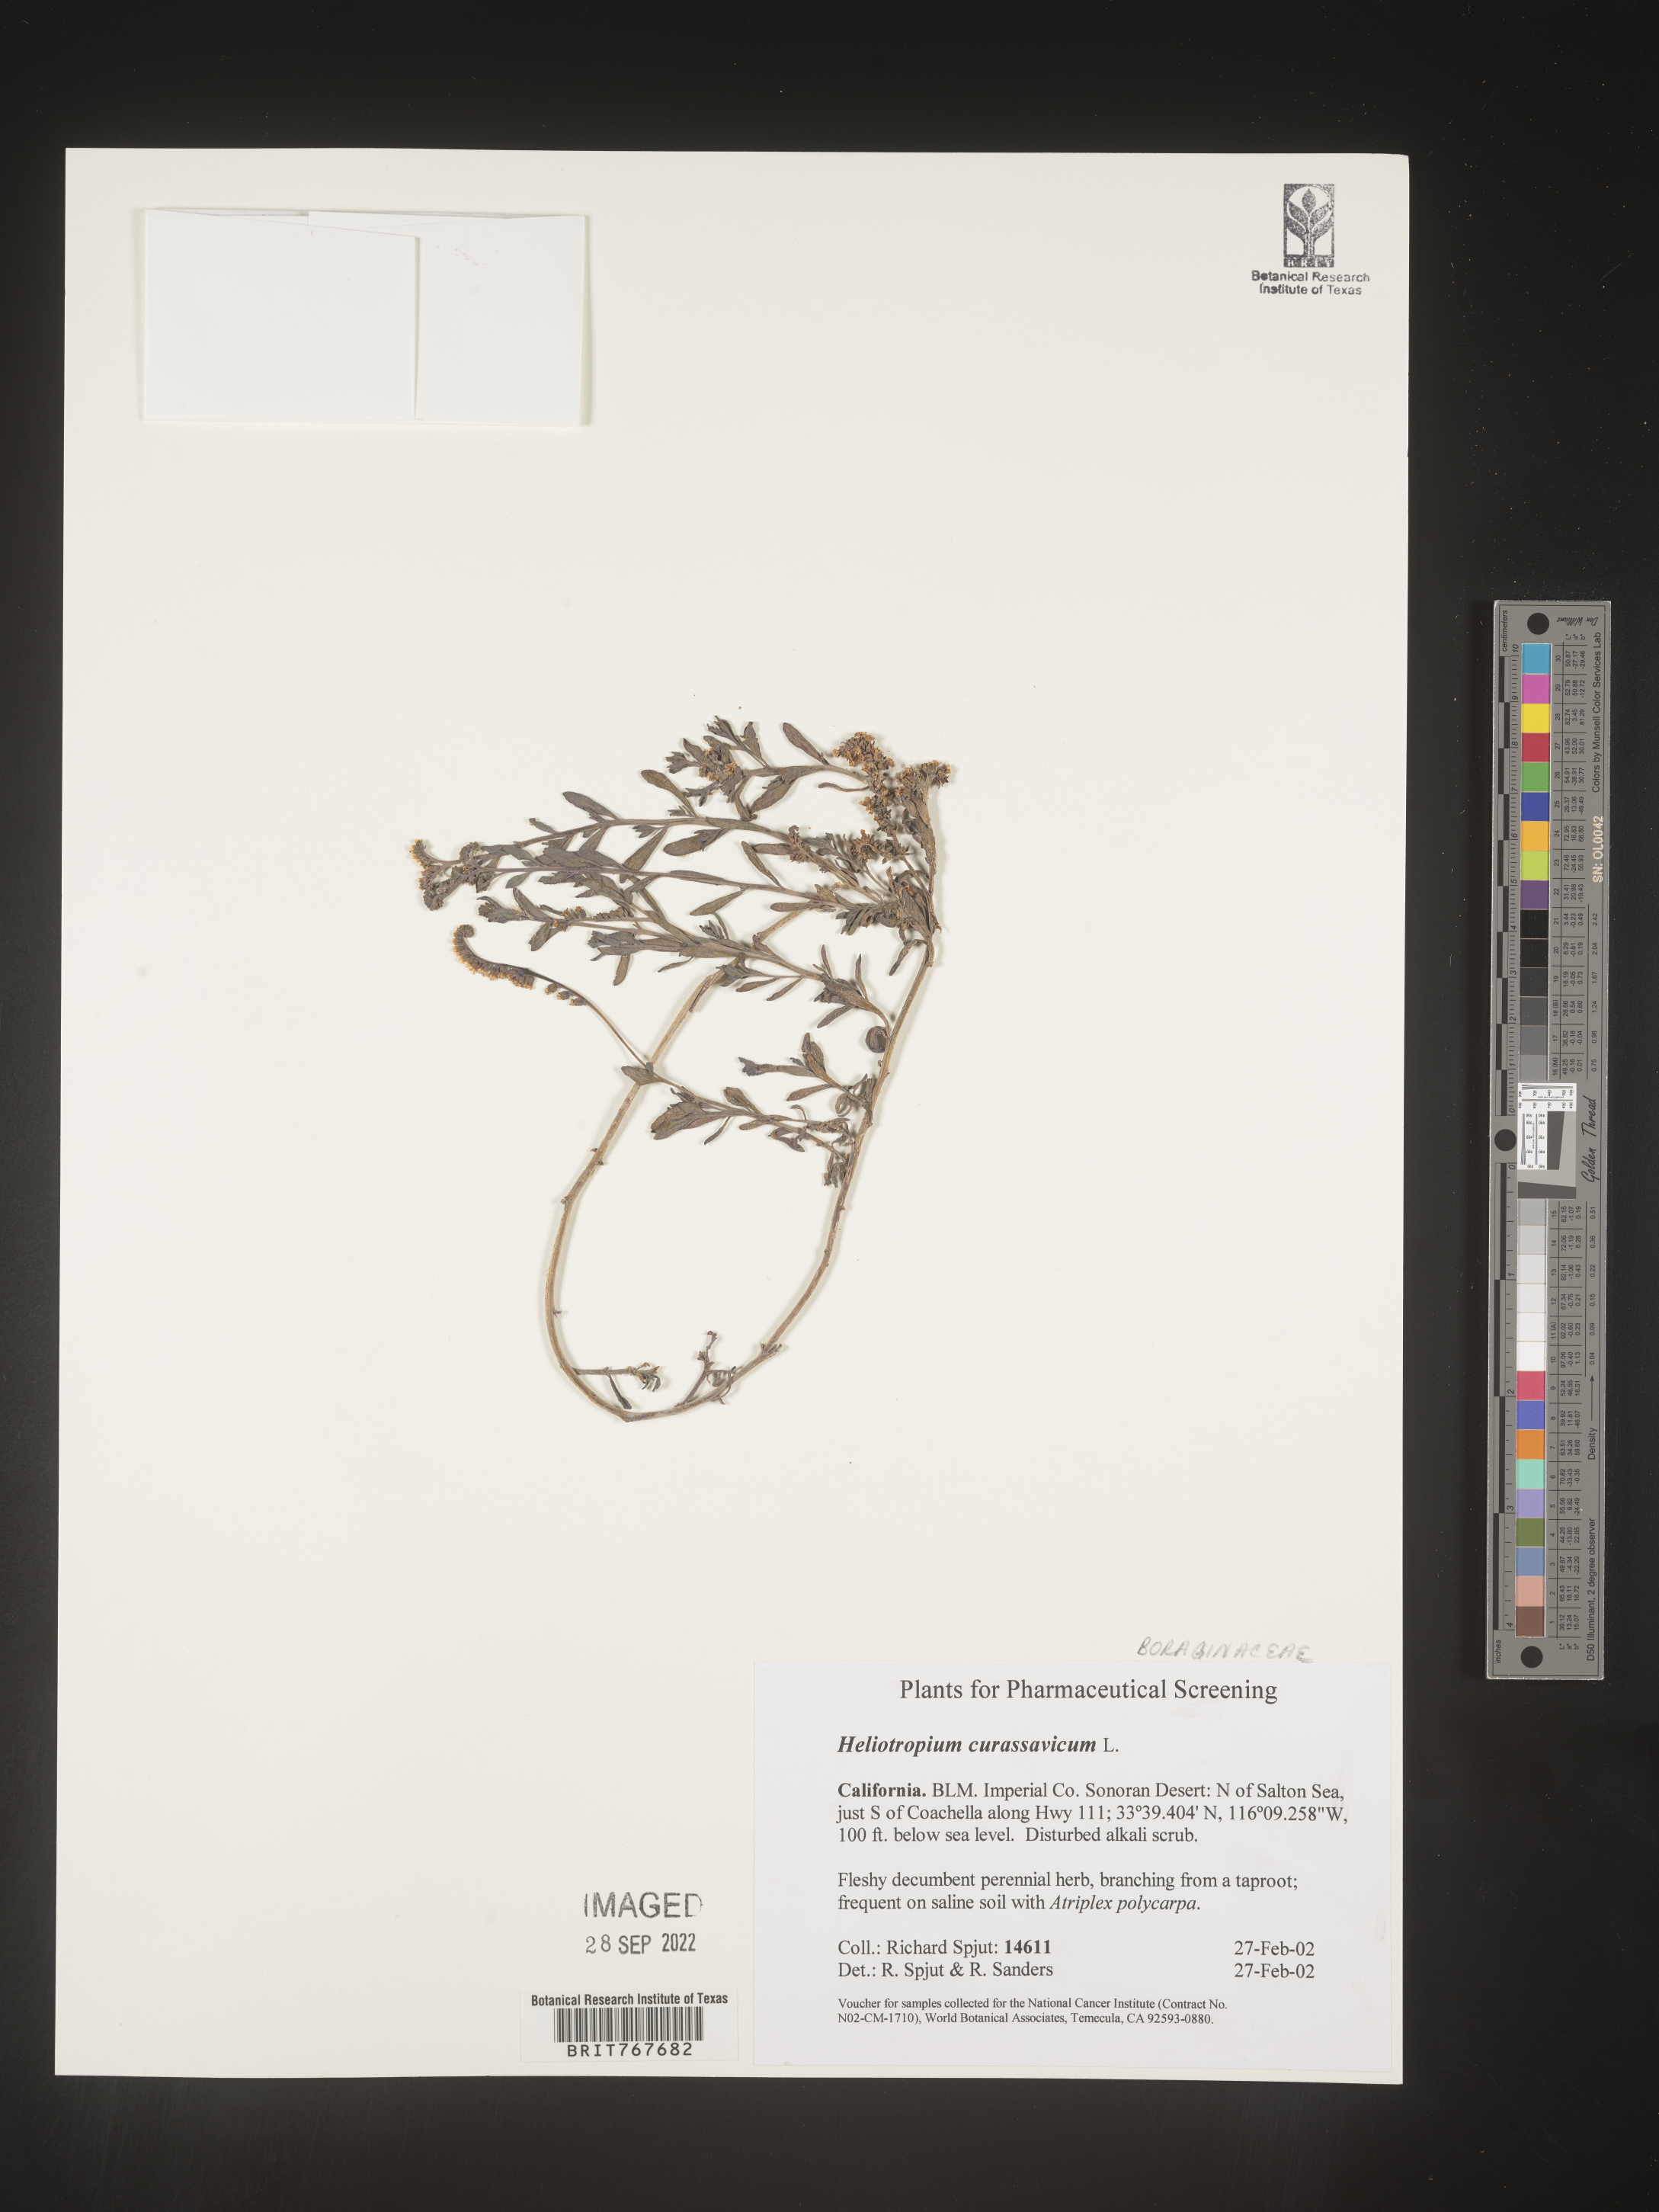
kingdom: Plantae
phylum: Tracheophyta
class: Magnoliopsida
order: Boraginales
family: Heliotropiaceae
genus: Heliotropium
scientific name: Heliotropium curassavicum
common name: Seaside heliotrope
